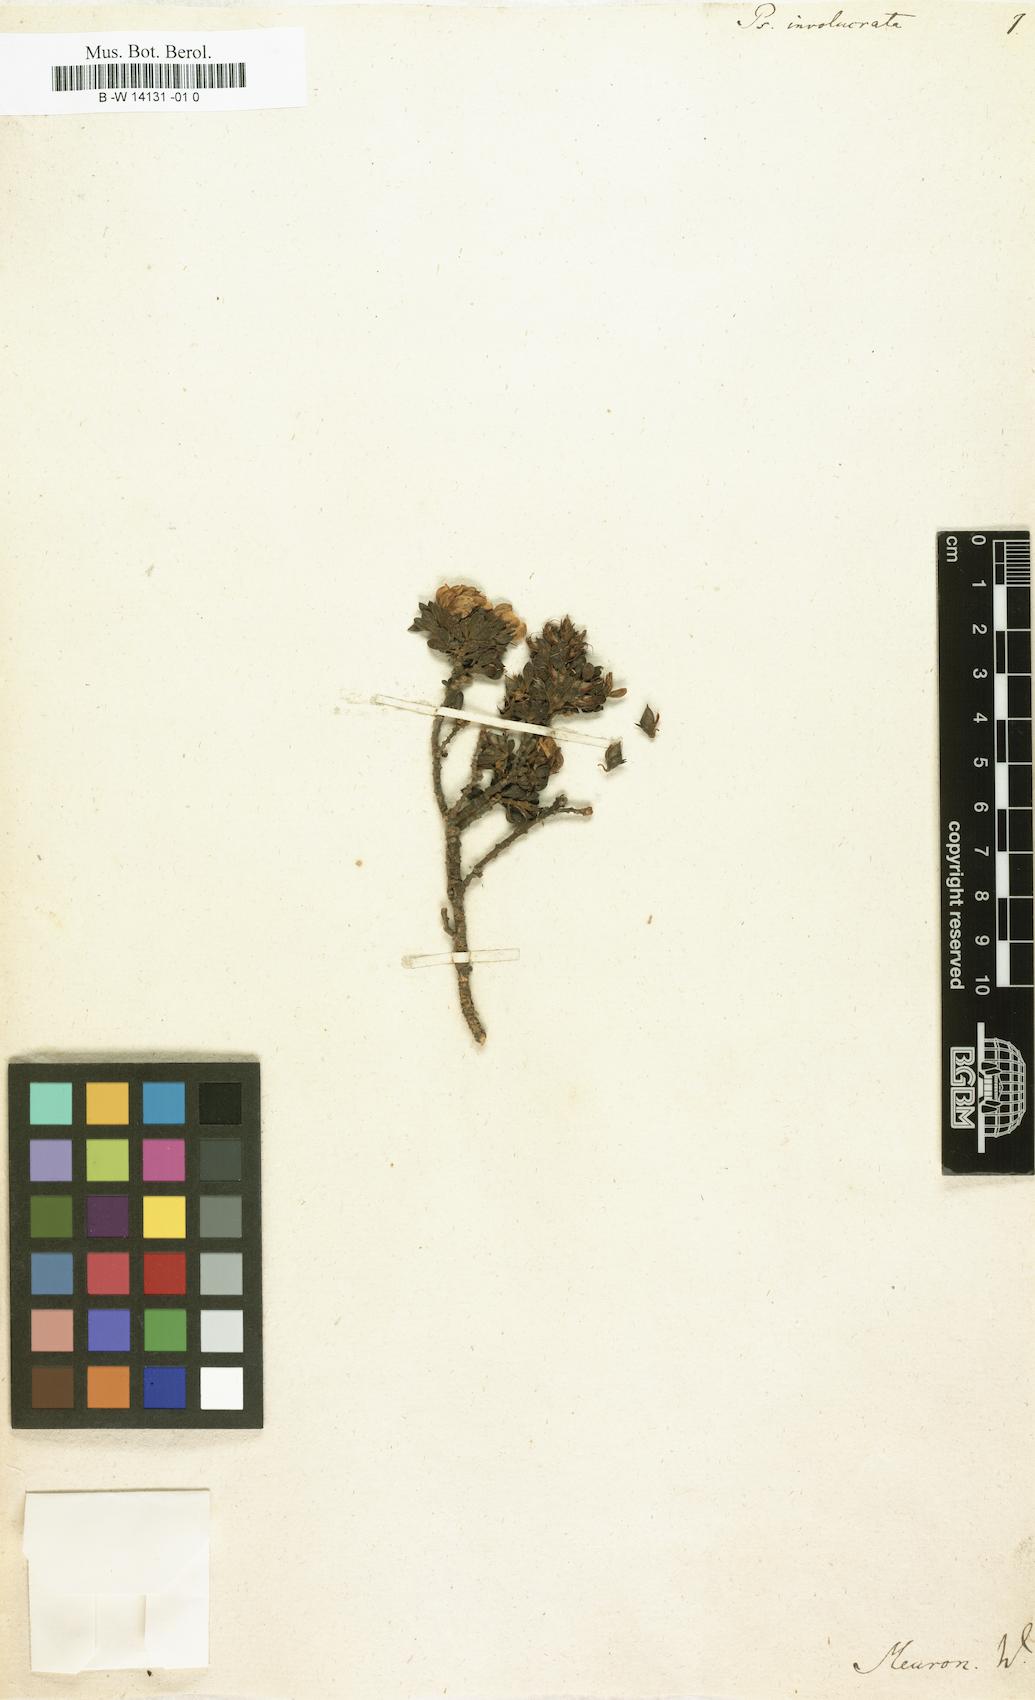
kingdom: Plantae
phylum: Tracheophyta
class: Magnoliopsida
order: Fabales
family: Fabaceae
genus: Polhillia
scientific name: Polhillia involucrata
